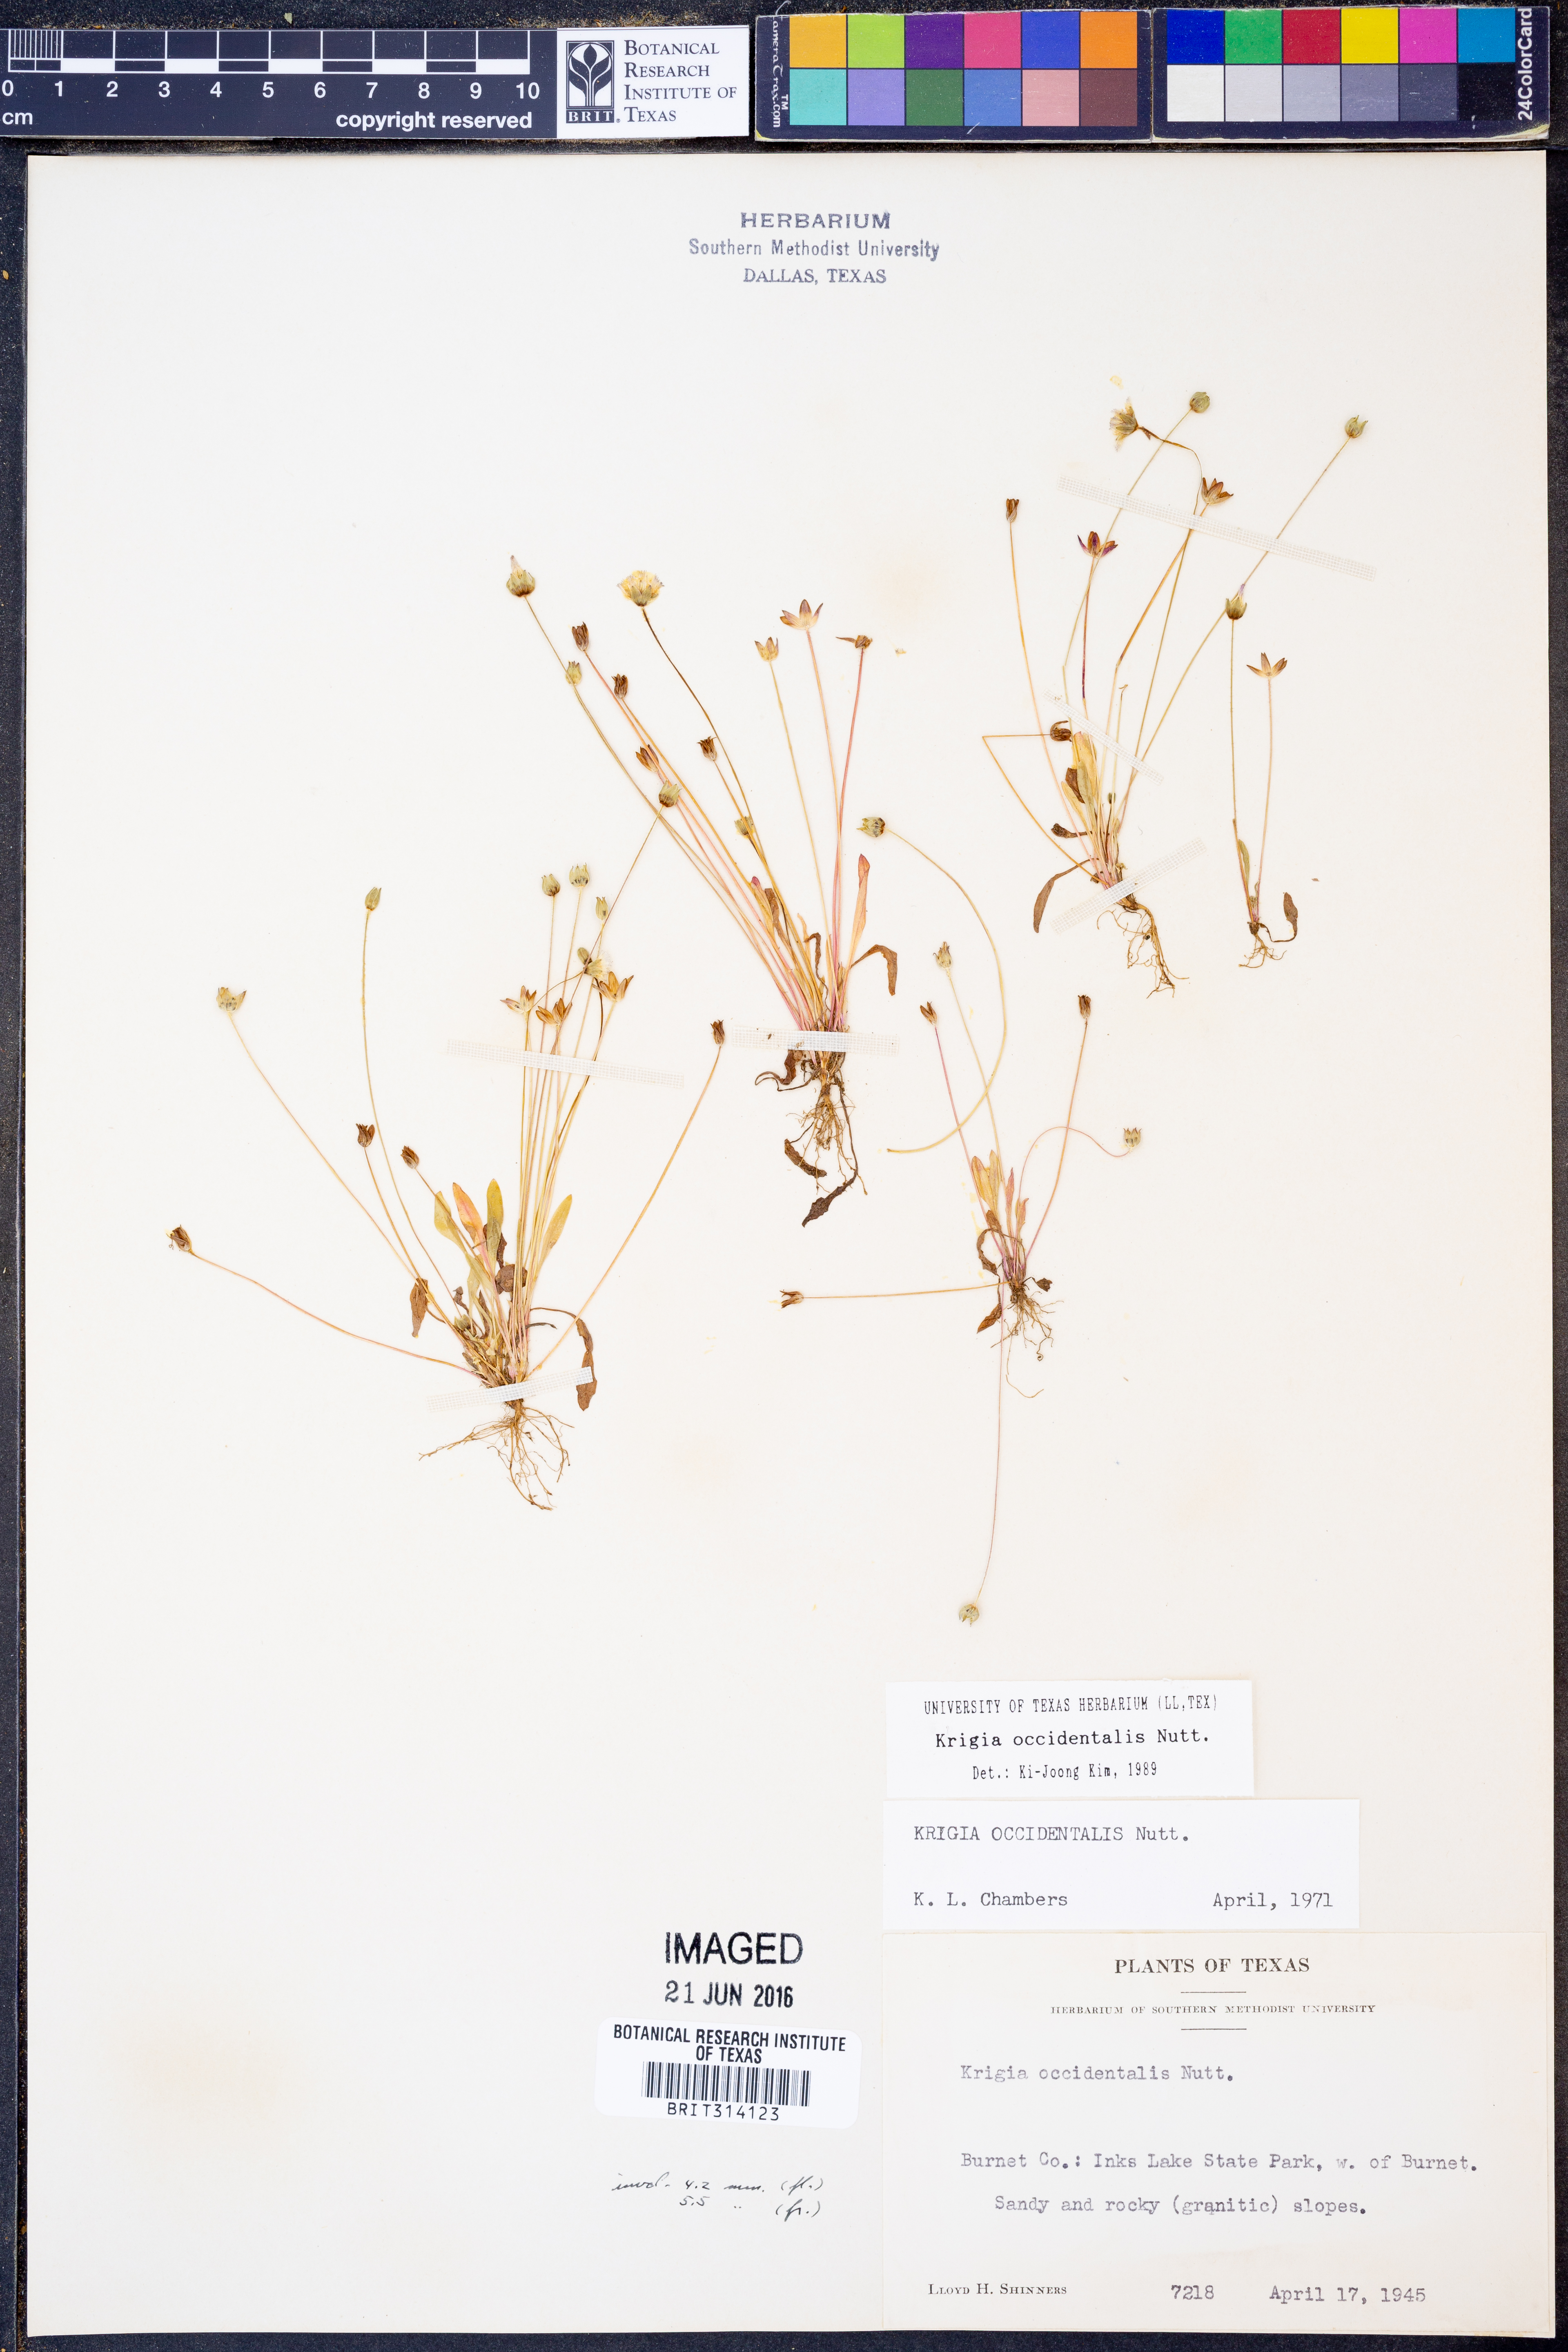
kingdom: Plantae
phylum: Tracheophyta
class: Magnoliopsida
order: Asterales
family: Asteraceae
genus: Krigia
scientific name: Krigia occidentalis
